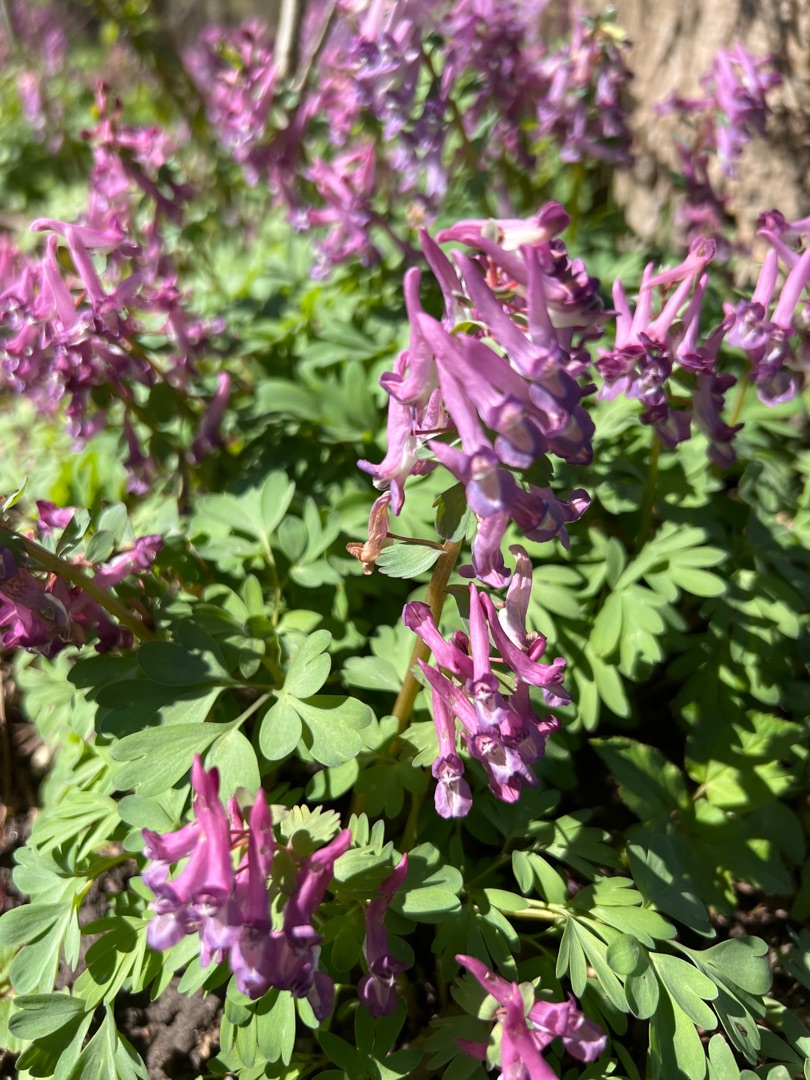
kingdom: Plantae
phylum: Tracheophyta
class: Magnoliopsida
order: Ranunculales
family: Papaveraceae
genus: Corydalis
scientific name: Corydalis solida
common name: Langstilket lærkespore
